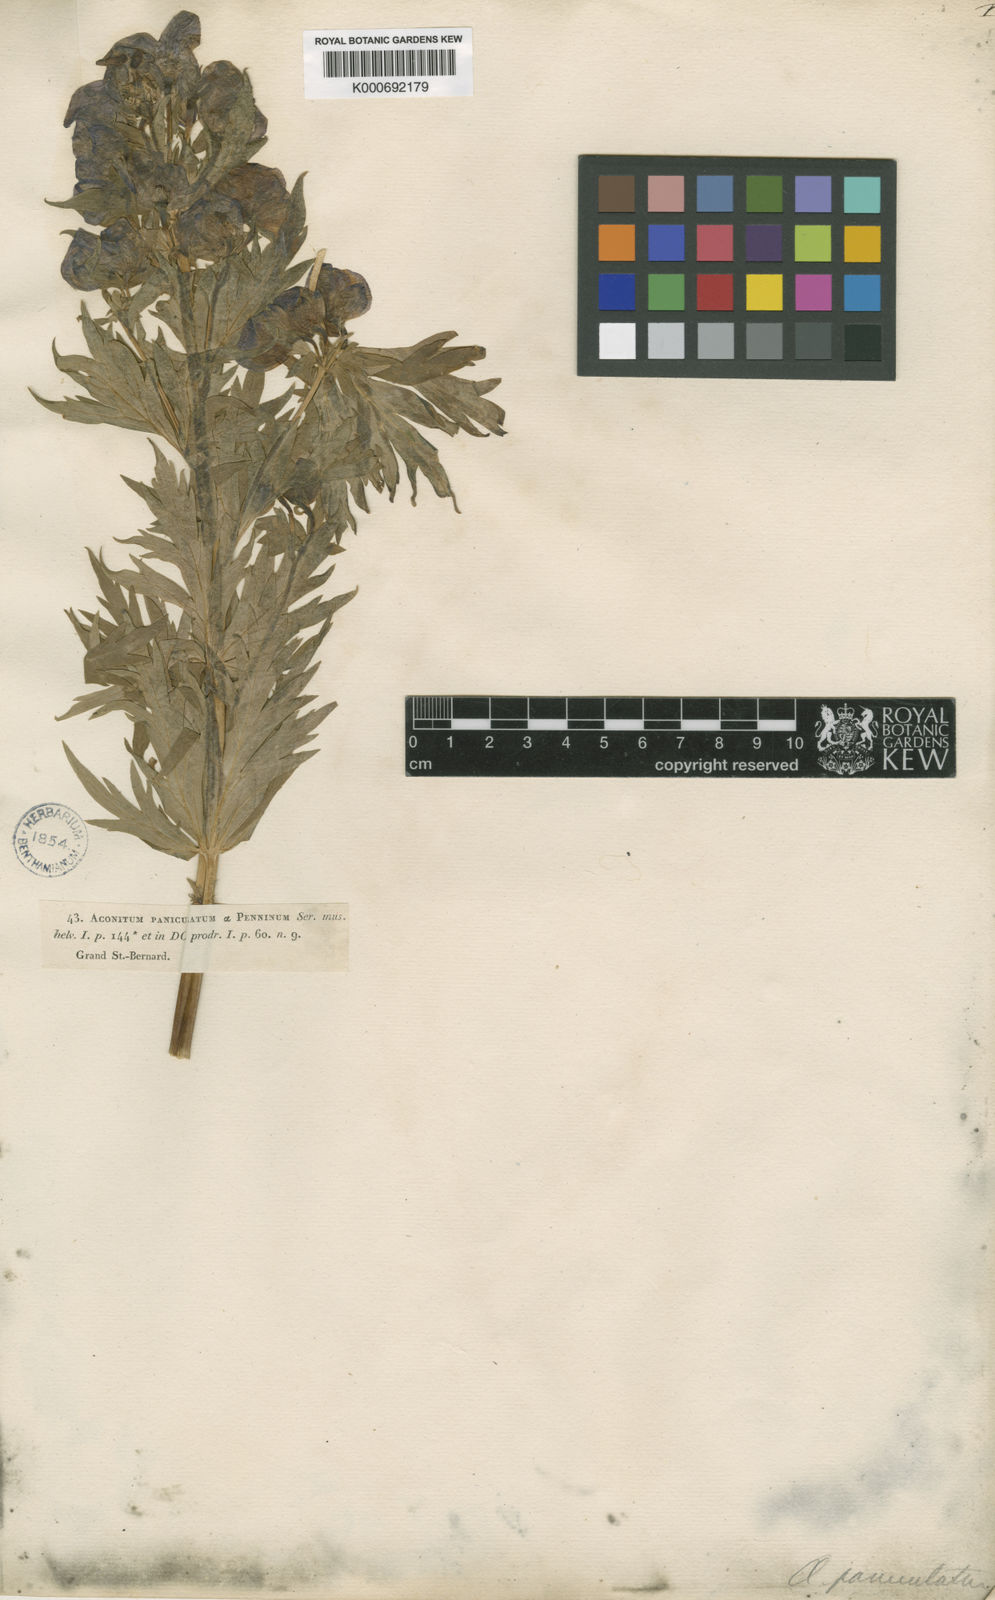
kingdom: Plantae
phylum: Tracheophyta
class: Magnoliopsida
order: Ranunculales
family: Ranunculaceae
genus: Aconitum
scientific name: Aconitum
